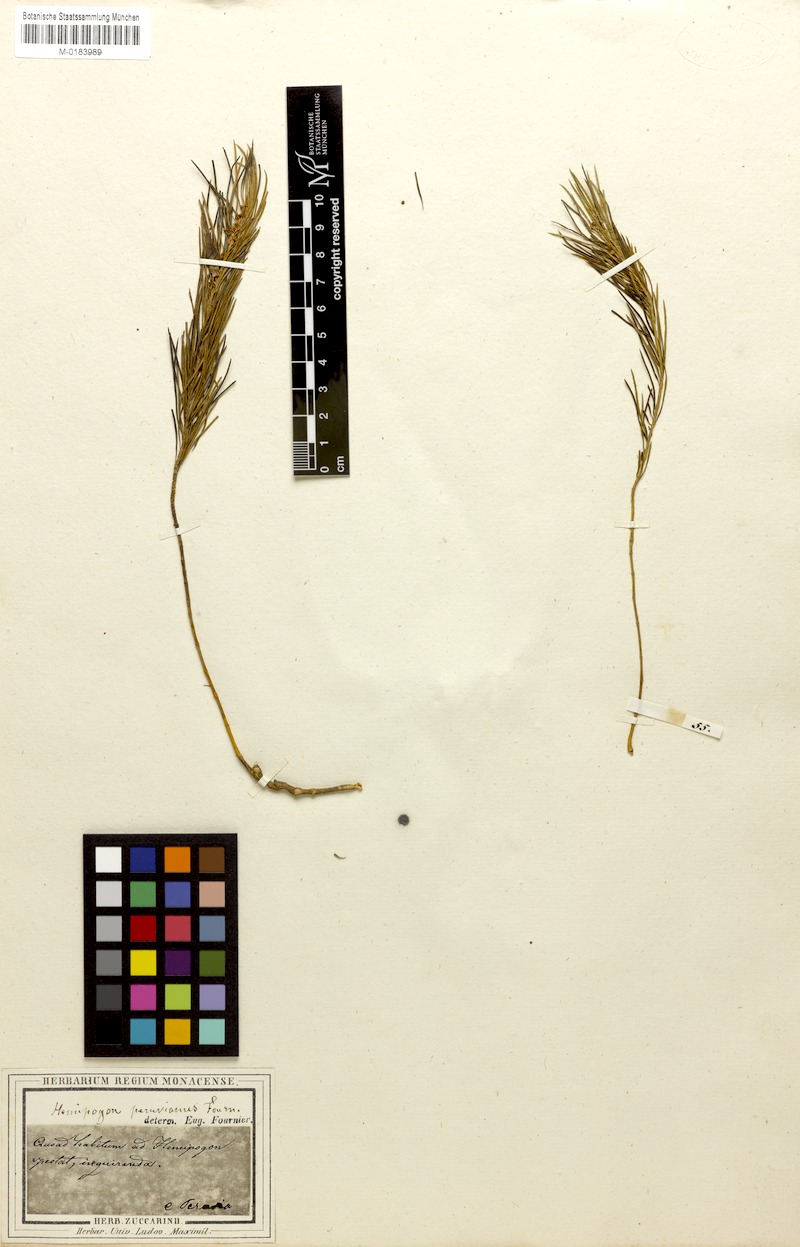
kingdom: Plantae
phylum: Tracheophyta
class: Magnoliopsida
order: Gentianales
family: Apocynaceae
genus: Hemipogon
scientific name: Hemipogon peruvianus
